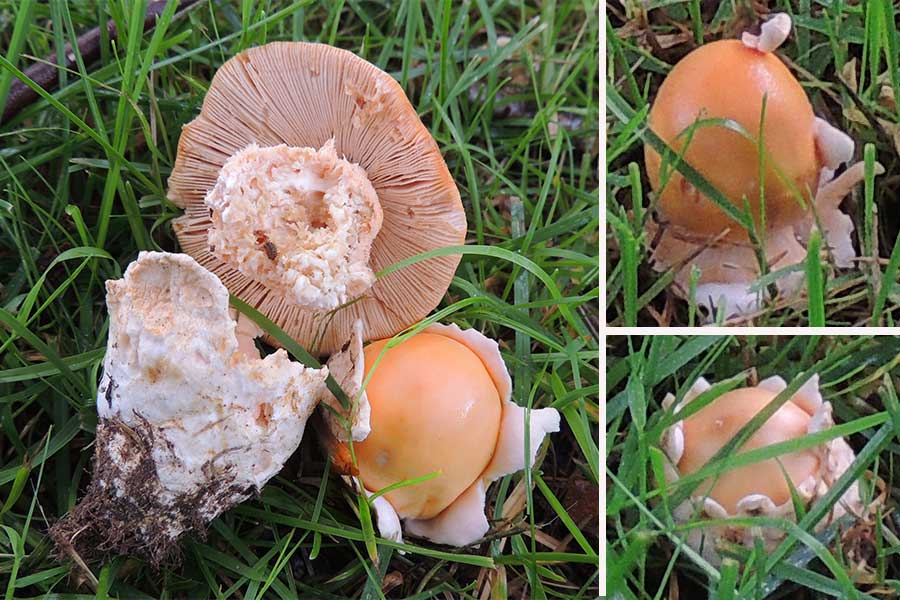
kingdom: Fungi
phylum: Basidiomycota
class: Agaricomycetes
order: Agaricales
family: Amanitaceae
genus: Amanita
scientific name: Amanita crocea
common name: gylden kam-fluesvamp
